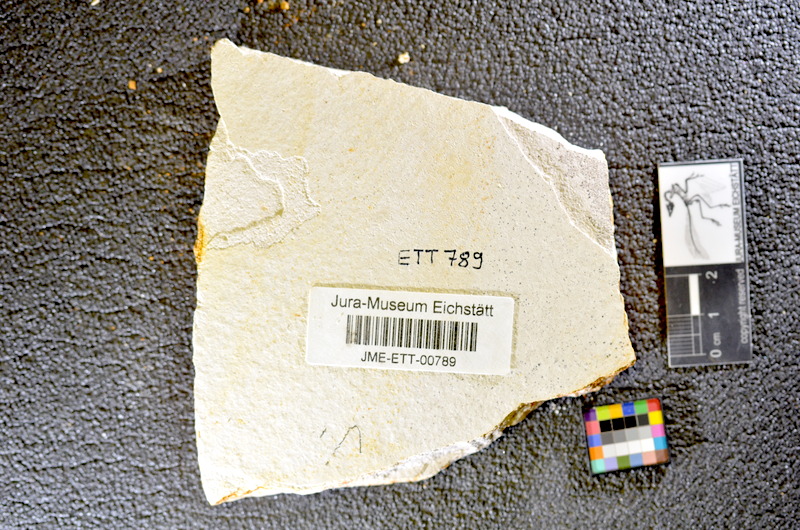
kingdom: Animalia
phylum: Chordata
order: Salmoniformes
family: Orthogonikleithridae
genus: Orthogonikleithrus
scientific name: Orthogonikleithrus hoelli
